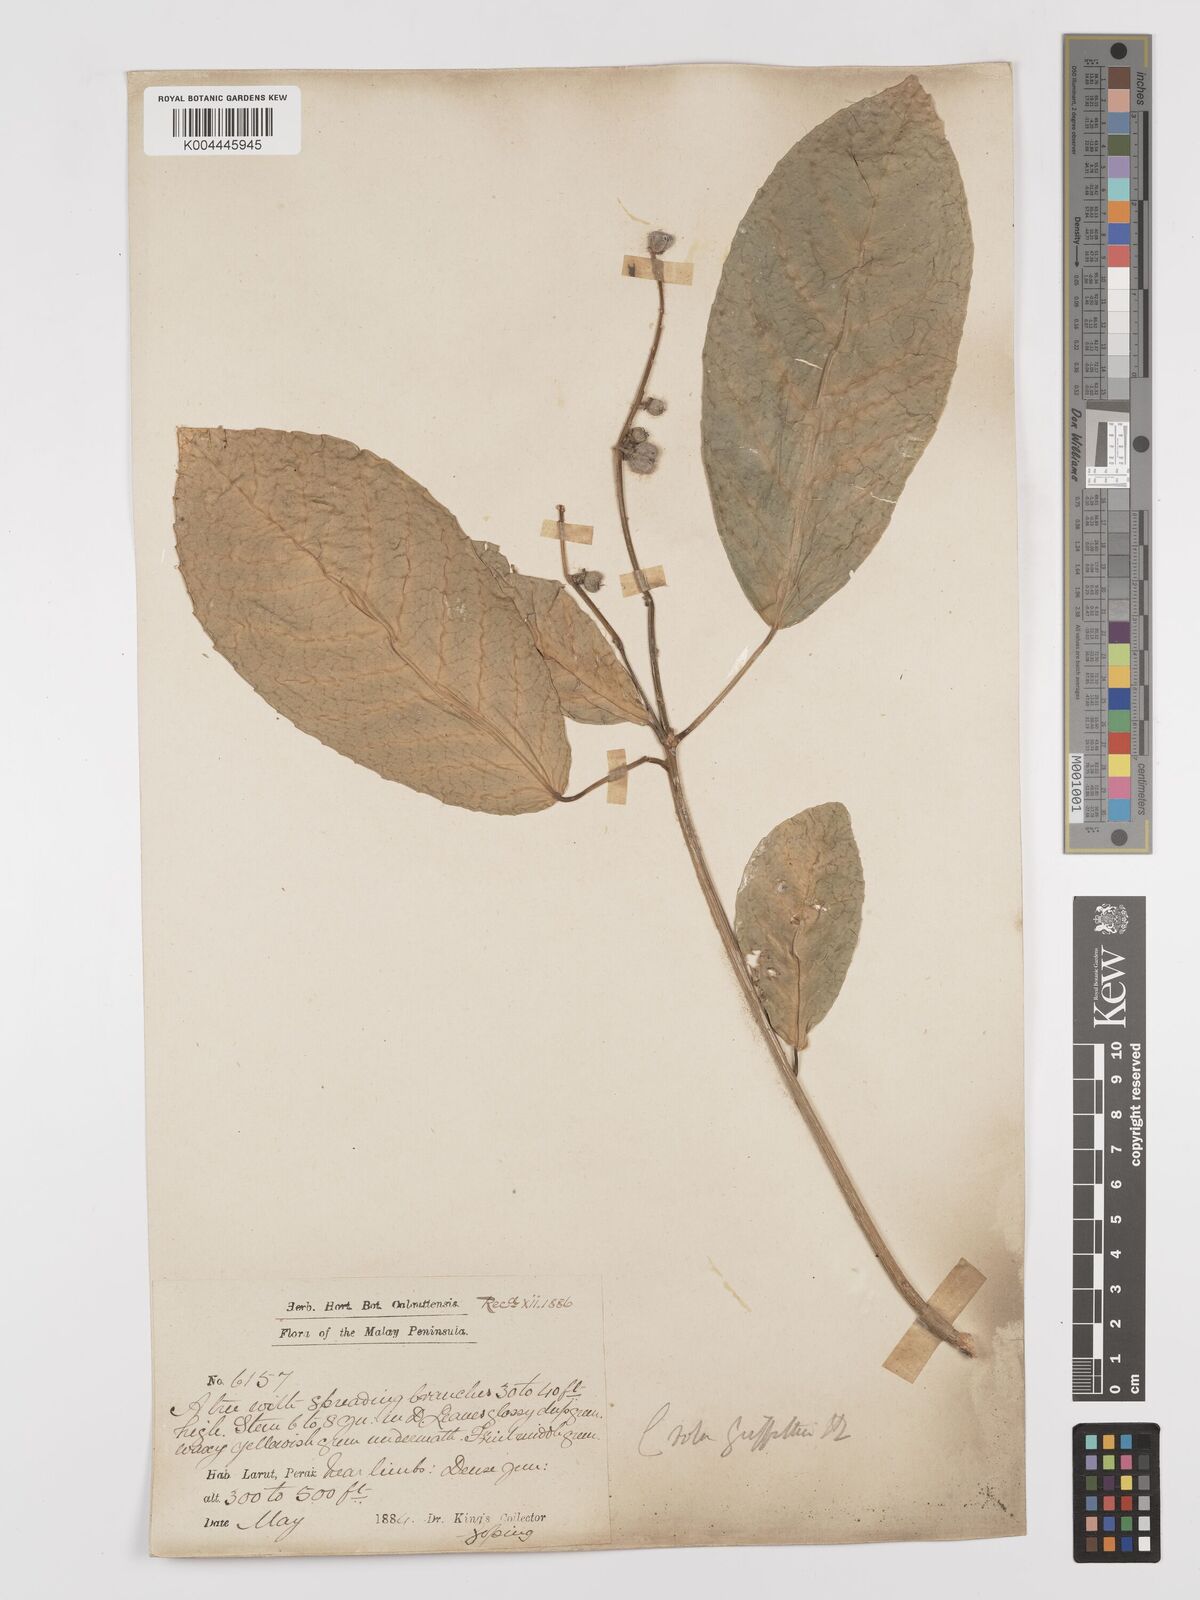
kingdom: Plantae
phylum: Tracheophyta
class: Magnoliopsida
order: Malpighiales
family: Euphorbiaceae
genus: Croton
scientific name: Croton griffithii
